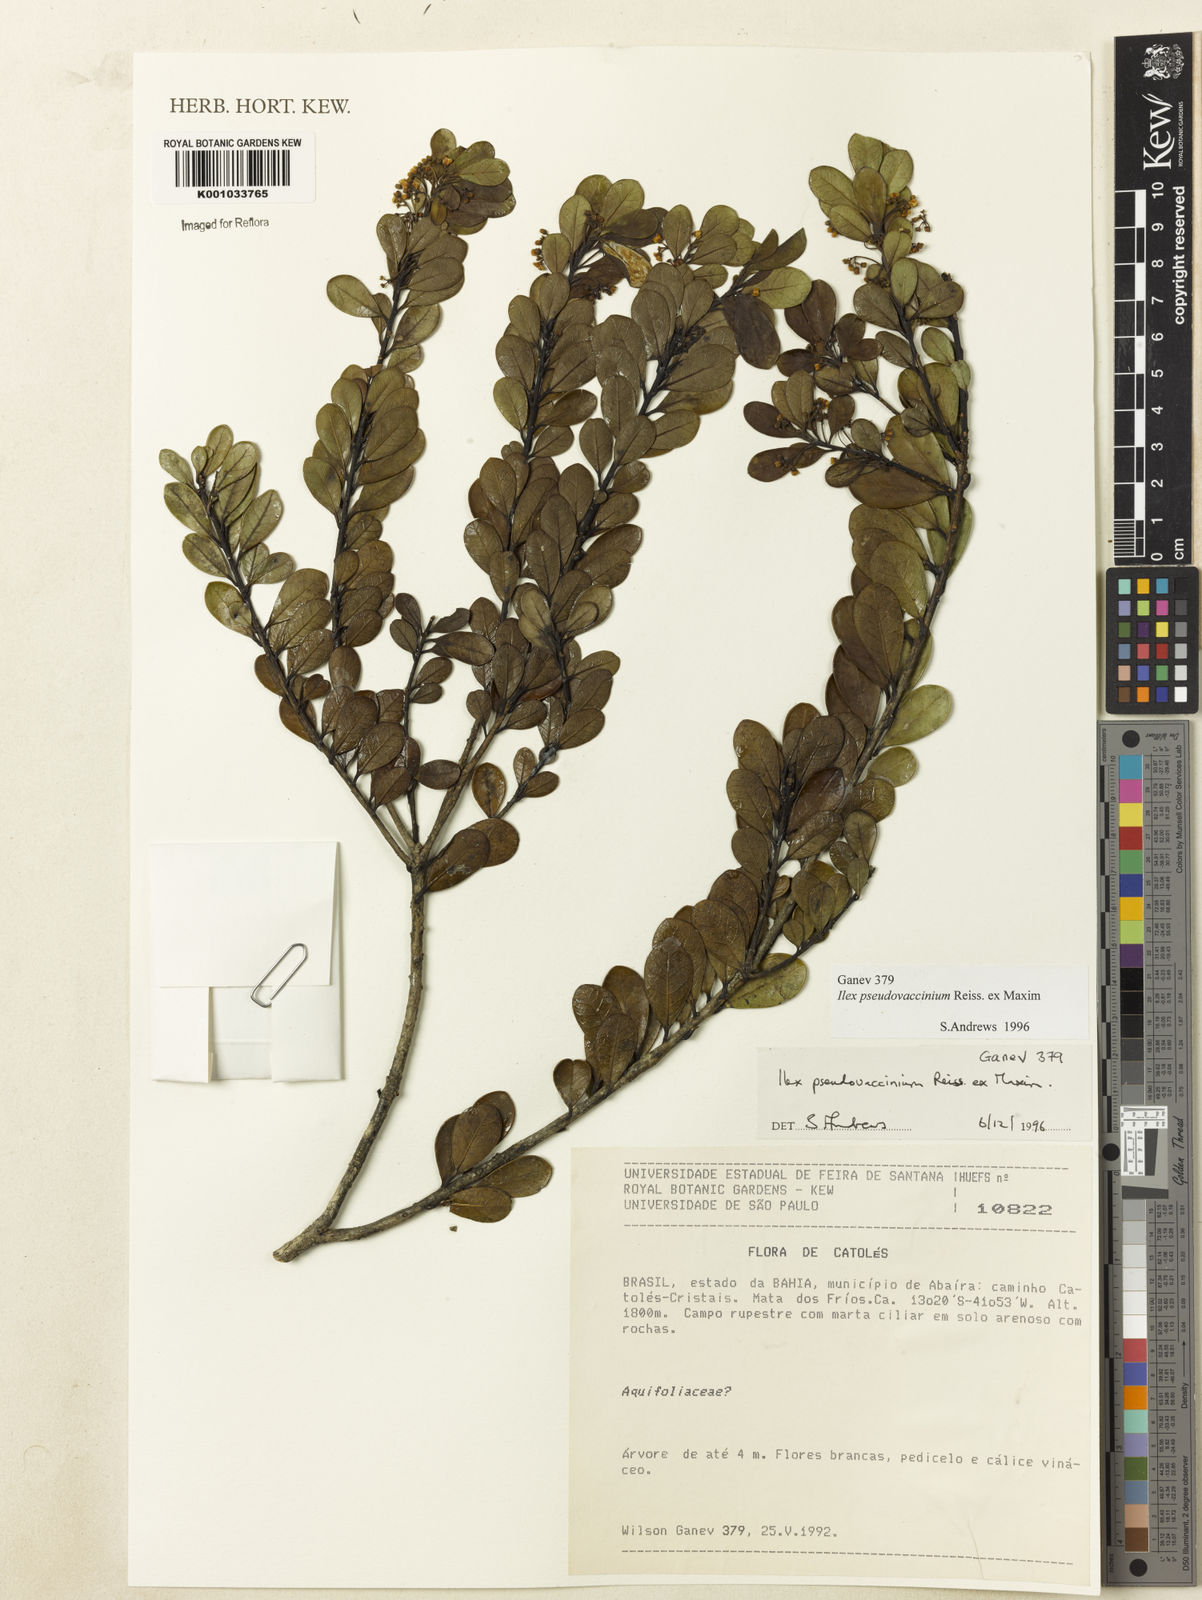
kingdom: Plantae
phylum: Tracheophyta
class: Magnoliopsida
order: Aquifoliales
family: Aquifoliaceae
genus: Ilex
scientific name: Ilex pseudovaccinium
